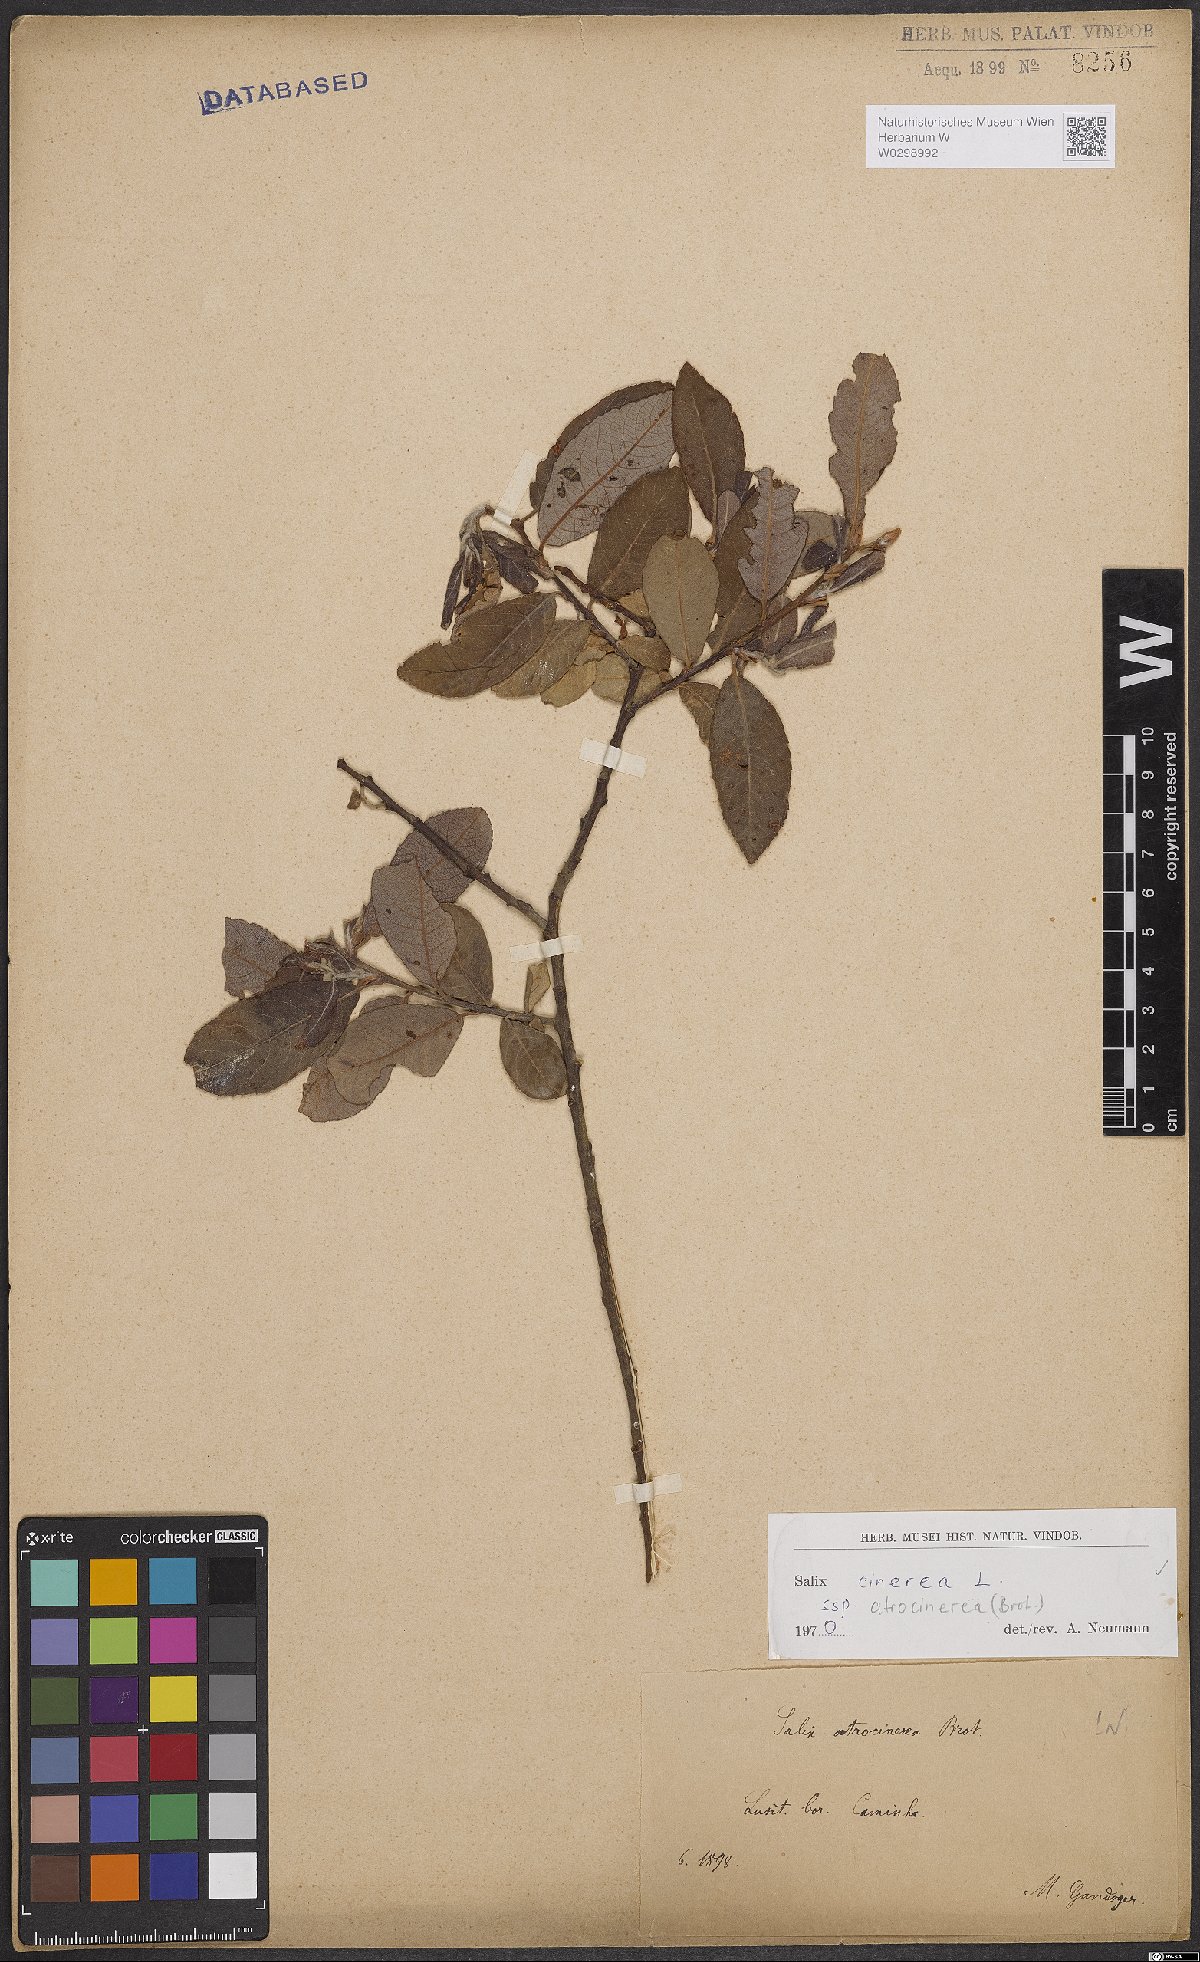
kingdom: Plantae
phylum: Tracheophyta
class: Magnoliopsida
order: Malpighiales
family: Salicaceae
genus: Salix
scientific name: Salix atrocinerea
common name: Rusty willow
